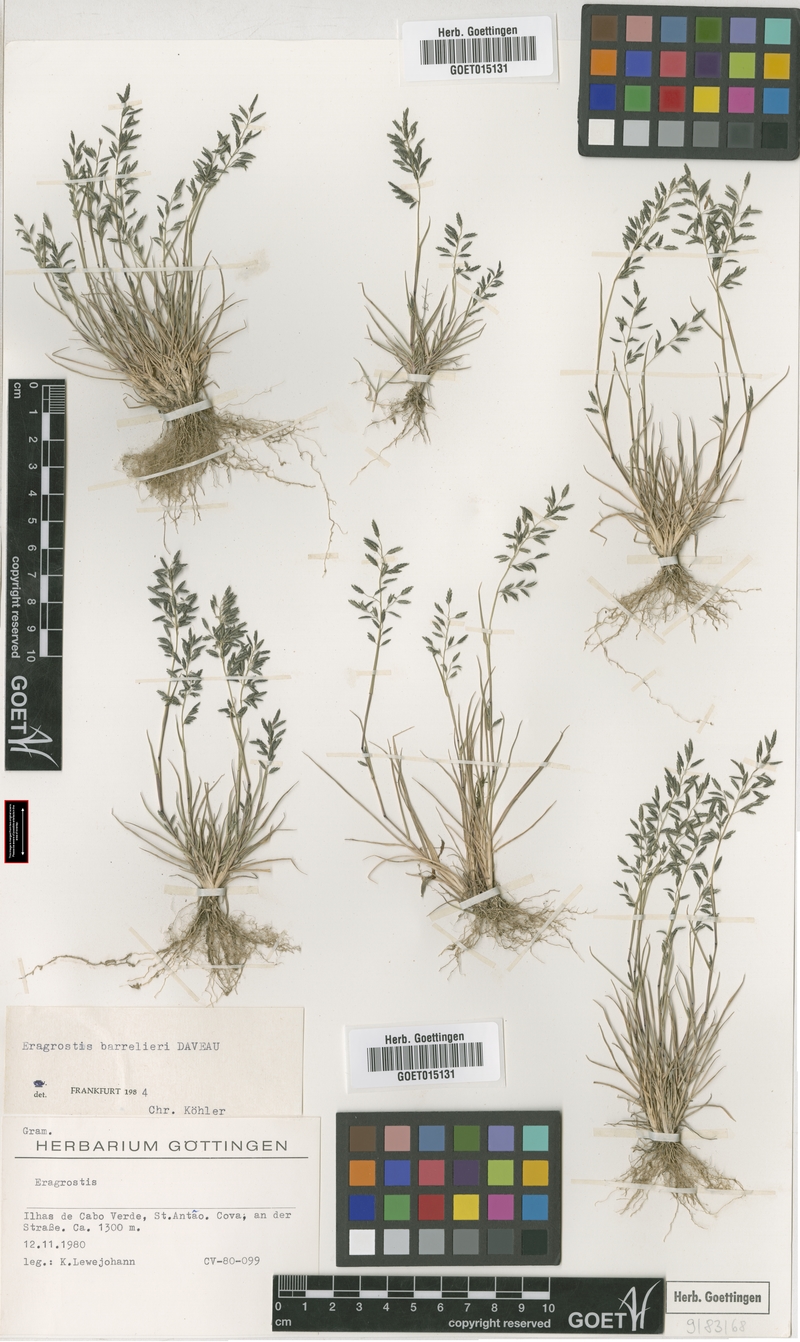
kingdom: Plantae
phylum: Tracheophyta
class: Liliopsida
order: Poales
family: Poaceae
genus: Eragrostis
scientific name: Eragrostis barrelieri
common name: Mediterranean lovegrass
